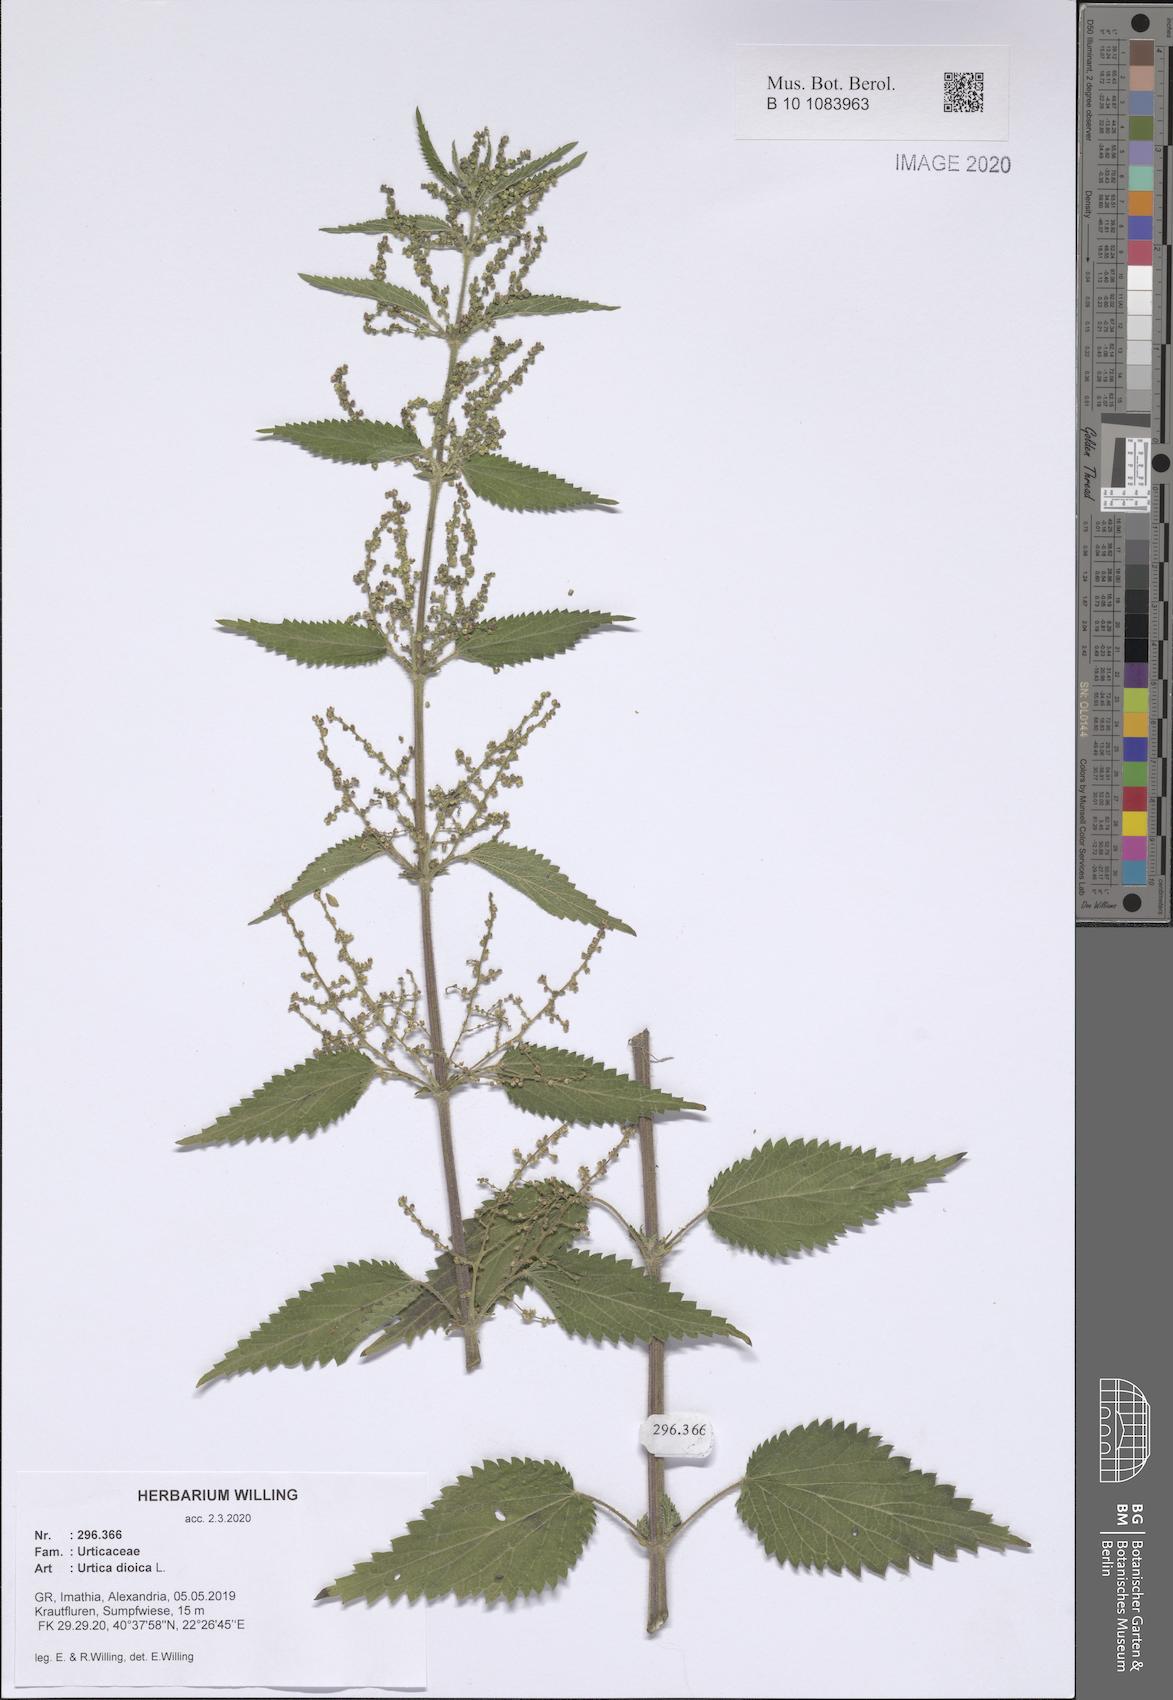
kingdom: Plantae
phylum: Tracheophyta
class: Magnoliopsida
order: Rosales
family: Urticaceae
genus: Urtica
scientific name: Urtica dioica
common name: Common nettle
